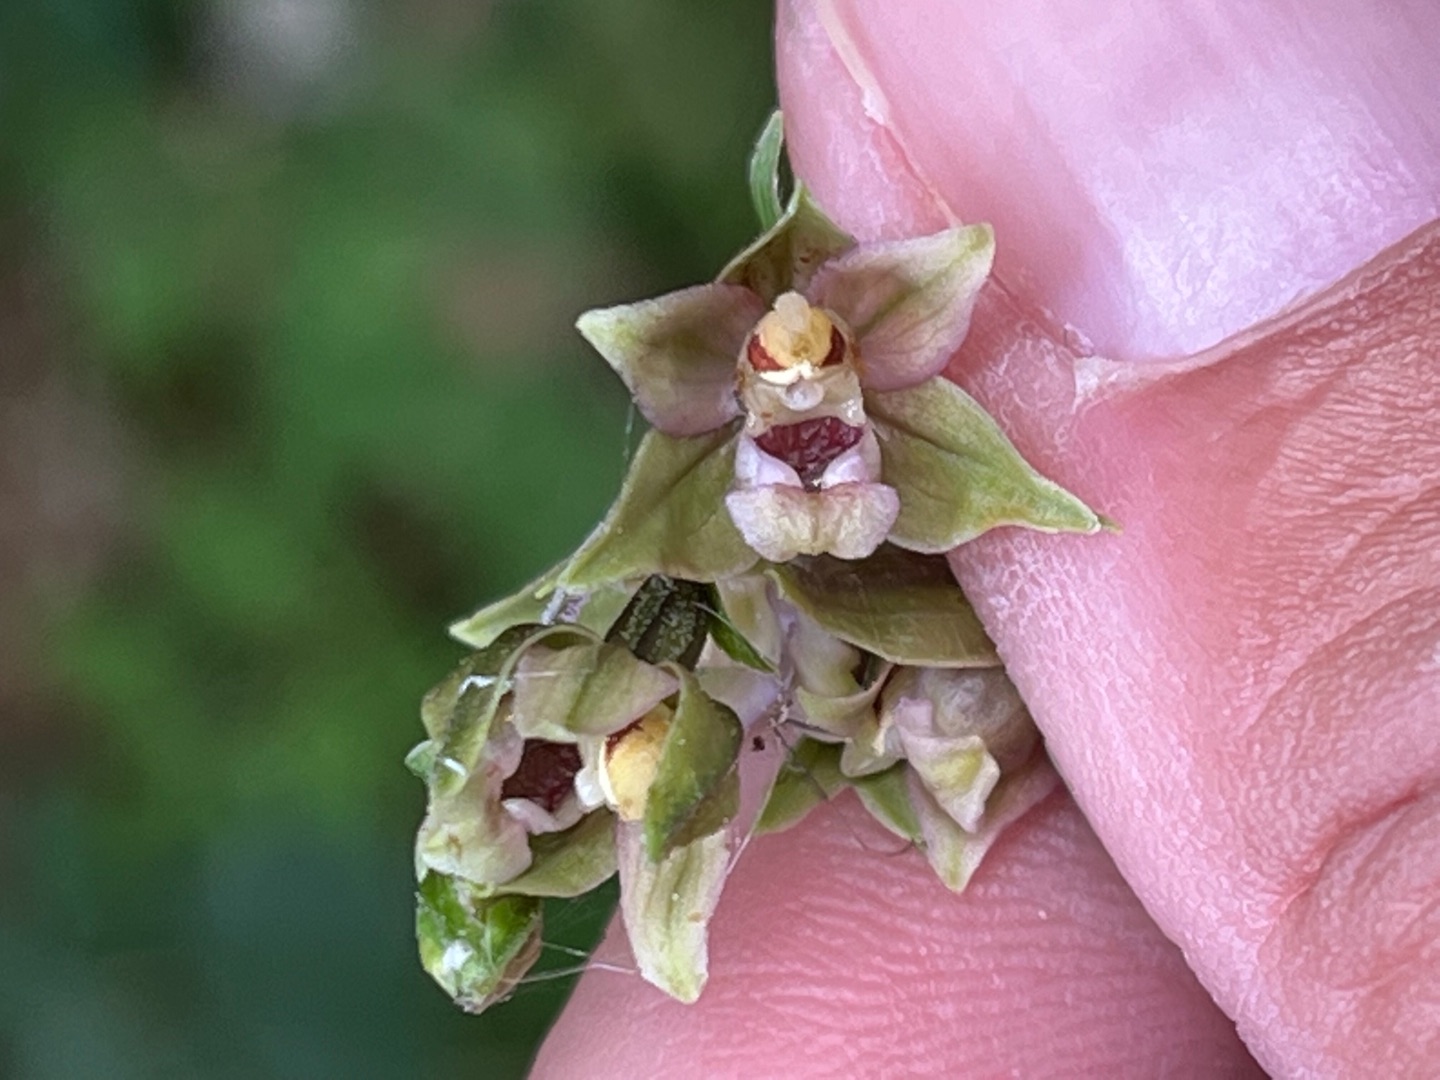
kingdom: Plantae
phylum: Tracheophyta
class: Liliopsida
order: Asparagales
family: Orchidaceae
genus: Epipactis
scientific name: Epipactis helleborine
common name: Skov-hullæbe
